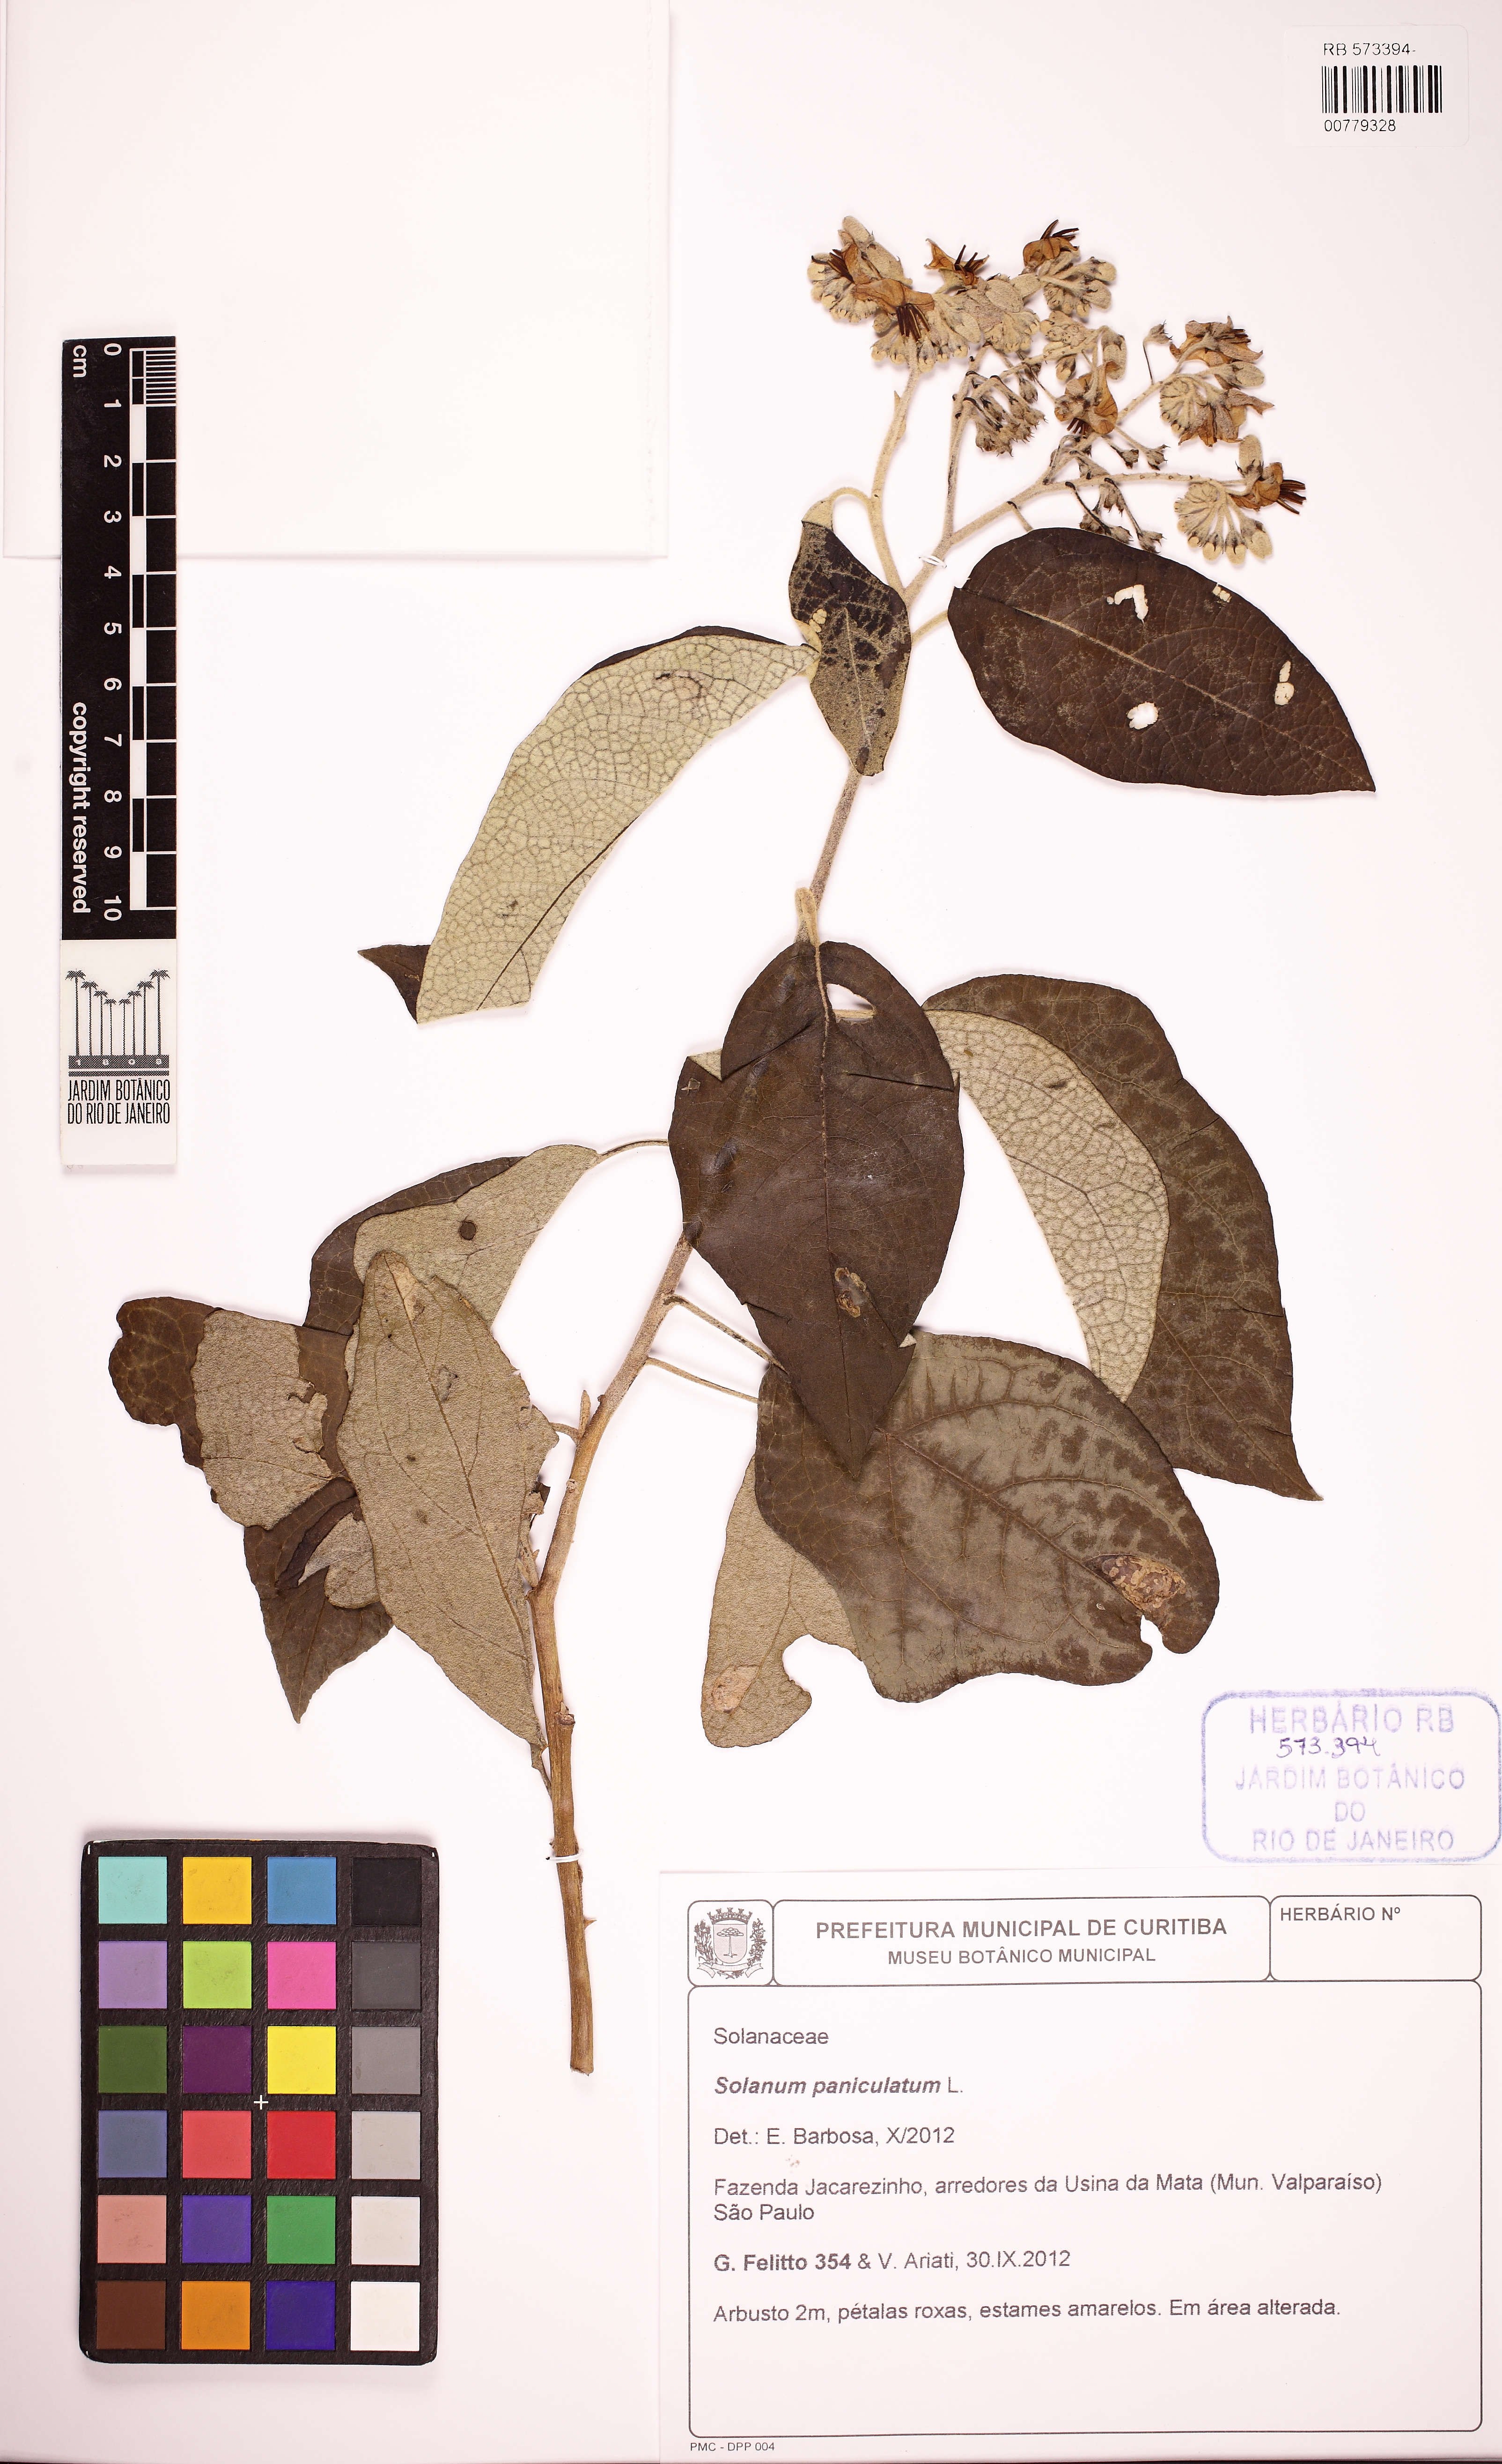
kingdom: Plantae
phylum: Tracheophyta
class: Magnoliopsida
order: Solanales
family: Solanaceae
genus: Solanum
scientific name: Solanum paniculatum
